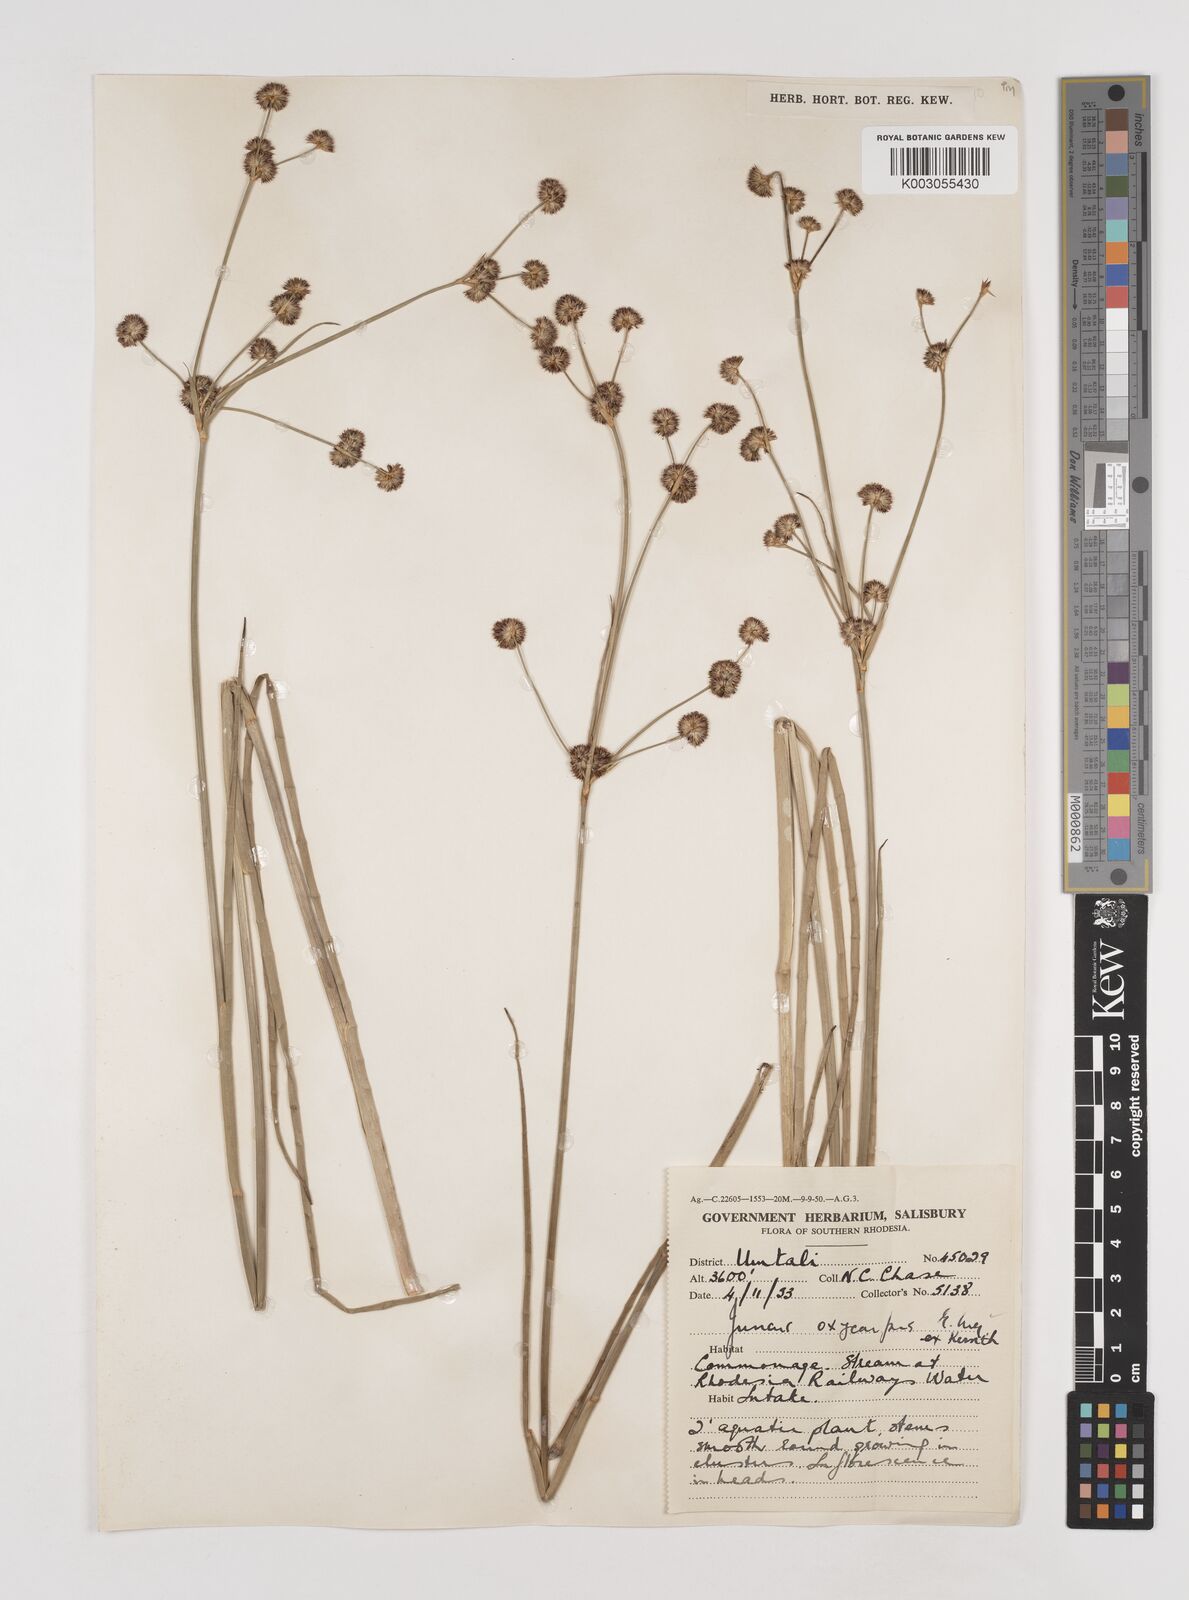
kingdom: Plantae
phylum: Tracheophyta
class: Liliopsida
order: Poales
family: Juncaceae
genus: Juncus
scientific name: Juncus oxycarpus
